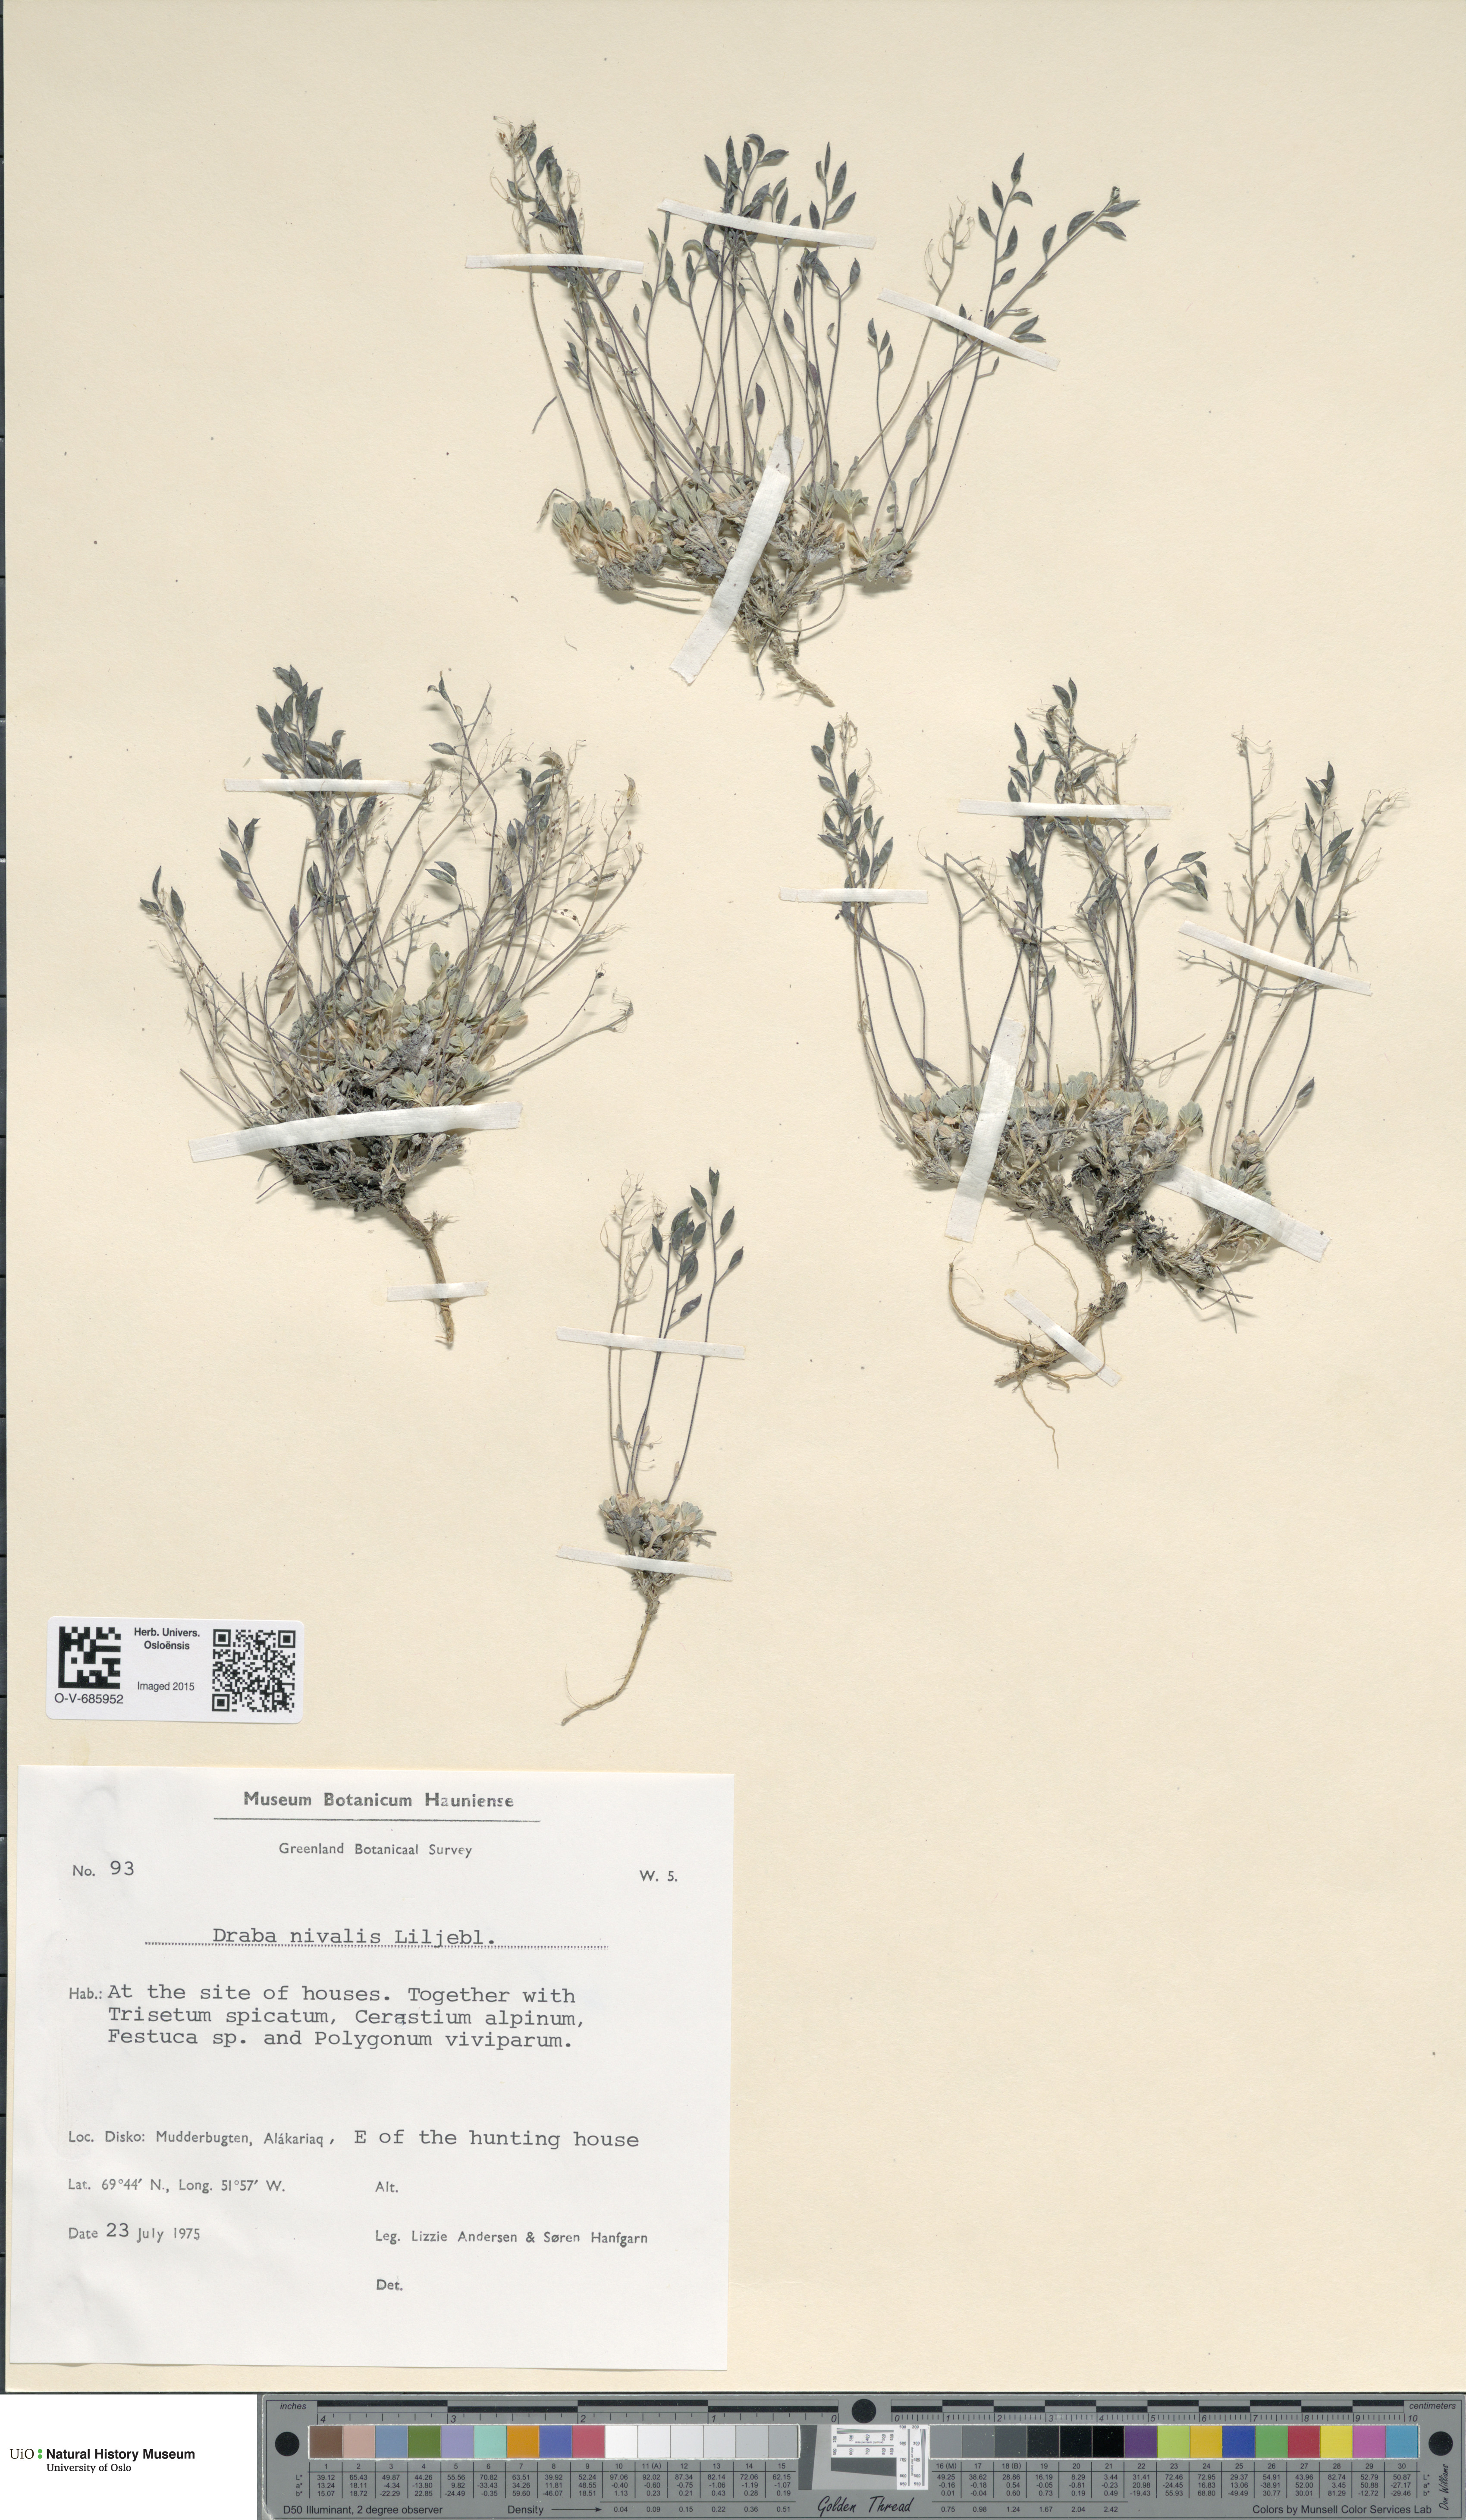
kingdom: Plantae
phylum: Tracheophyta
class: Magnoliopsida
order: Brassicales
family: Brassicaceae
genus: Draba
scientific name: Draba nivalis
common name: Snow draba
